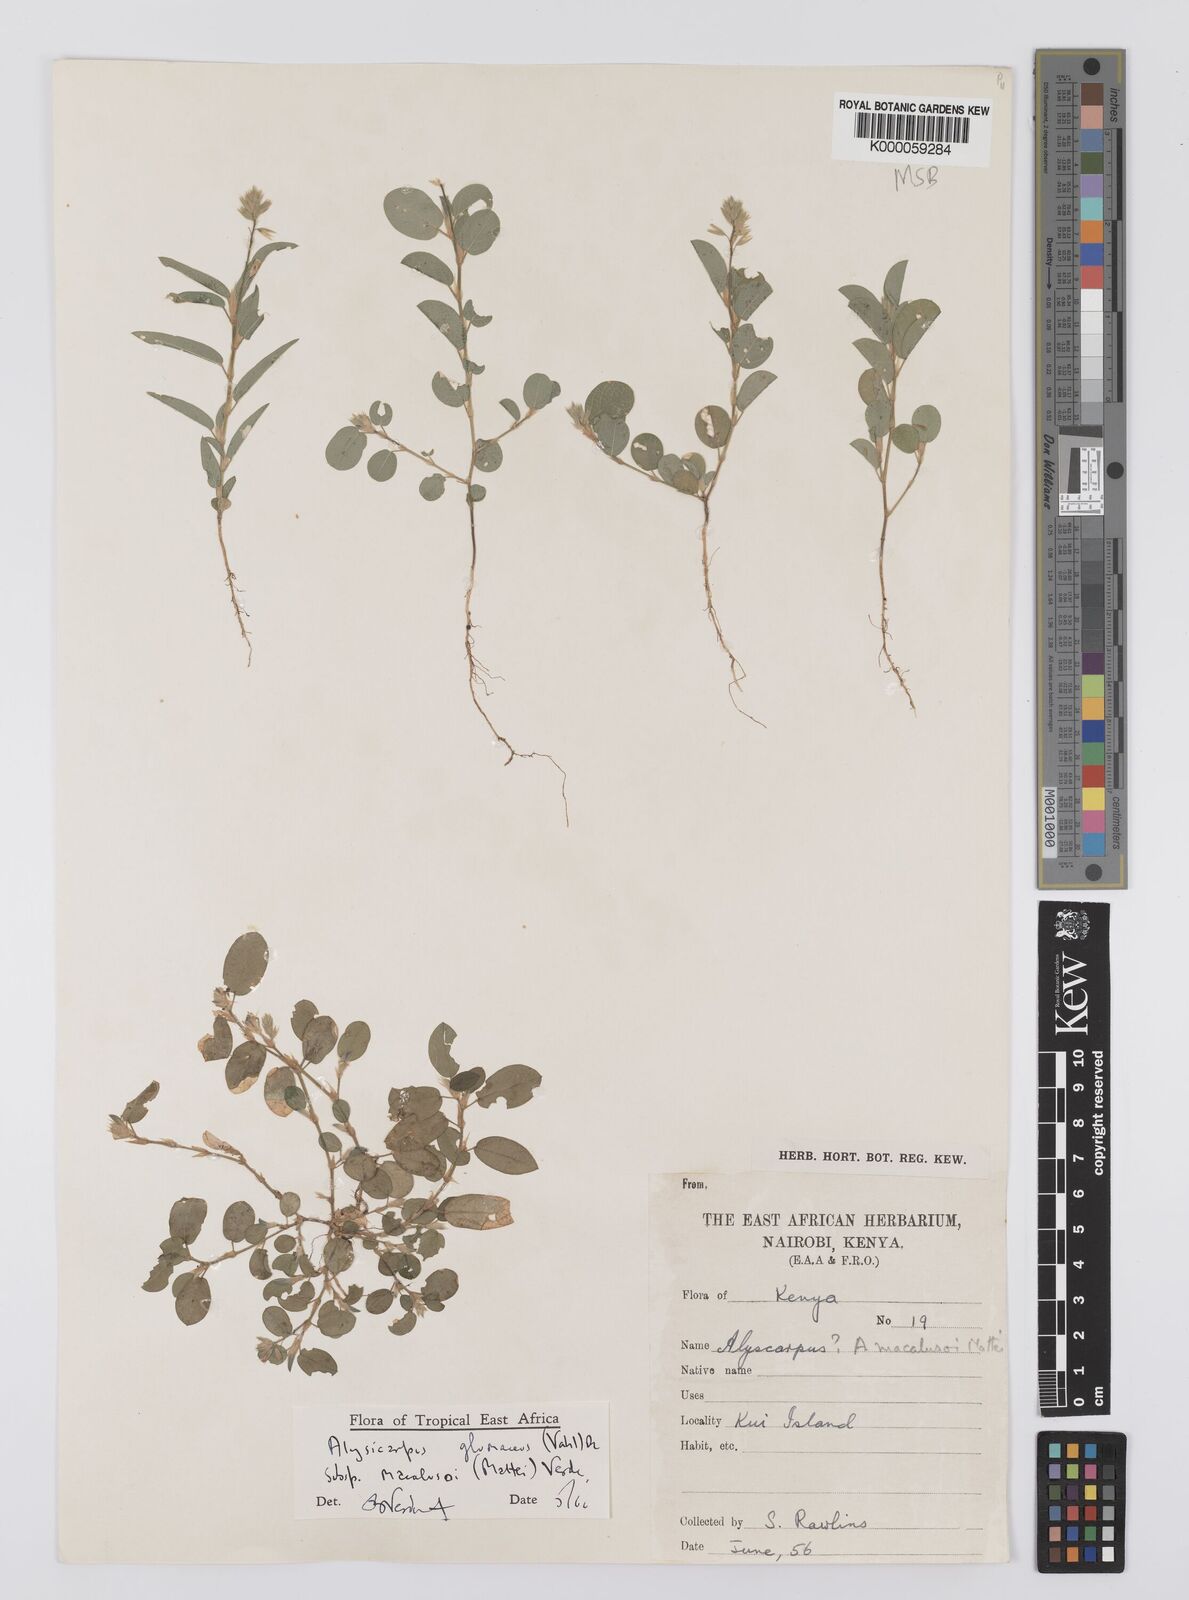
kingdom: Plantae
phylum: Tracheophyta
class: Magnoliopsida
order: Fabales
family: Fabaceae
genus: Alysicarpus
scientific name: Alysicarpus glumaceus
